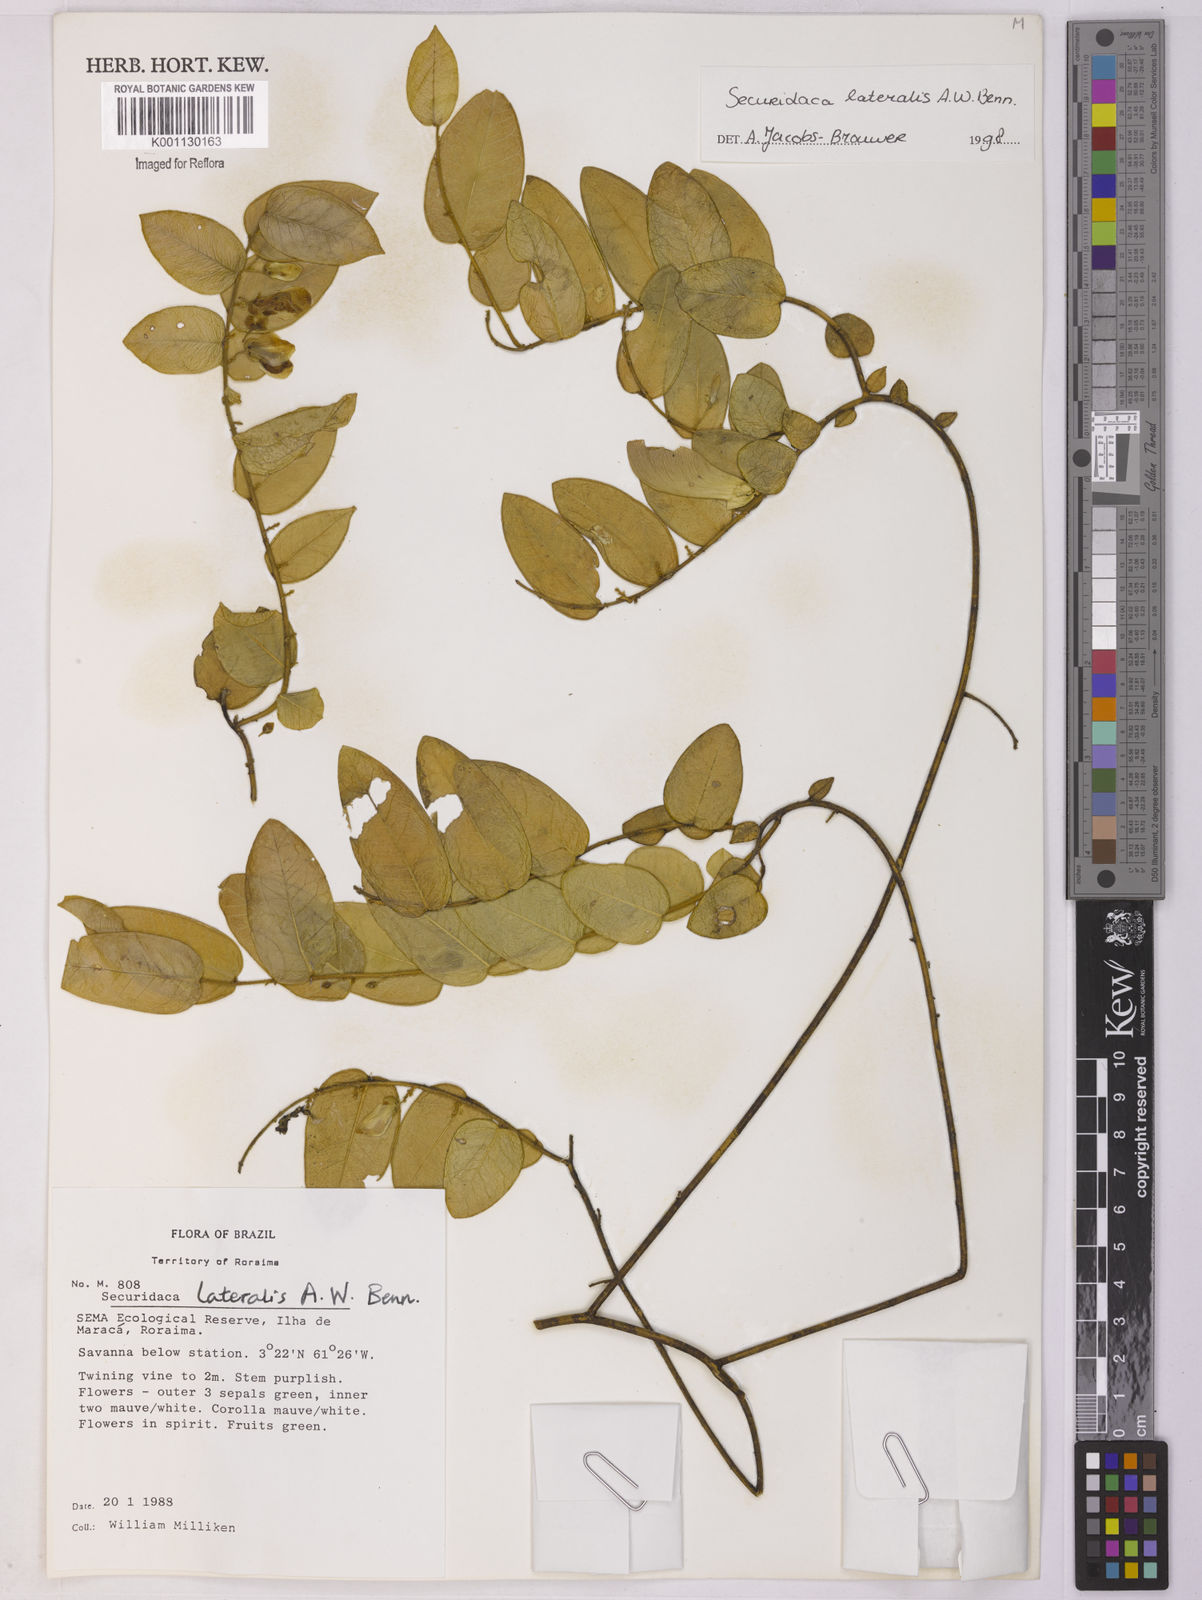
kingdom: Plantae
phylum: Tracheophyta
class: Magnoliopsida
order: Fabales
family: Polygalaceae
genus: Securidaca
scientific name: Securidaca lateralis
